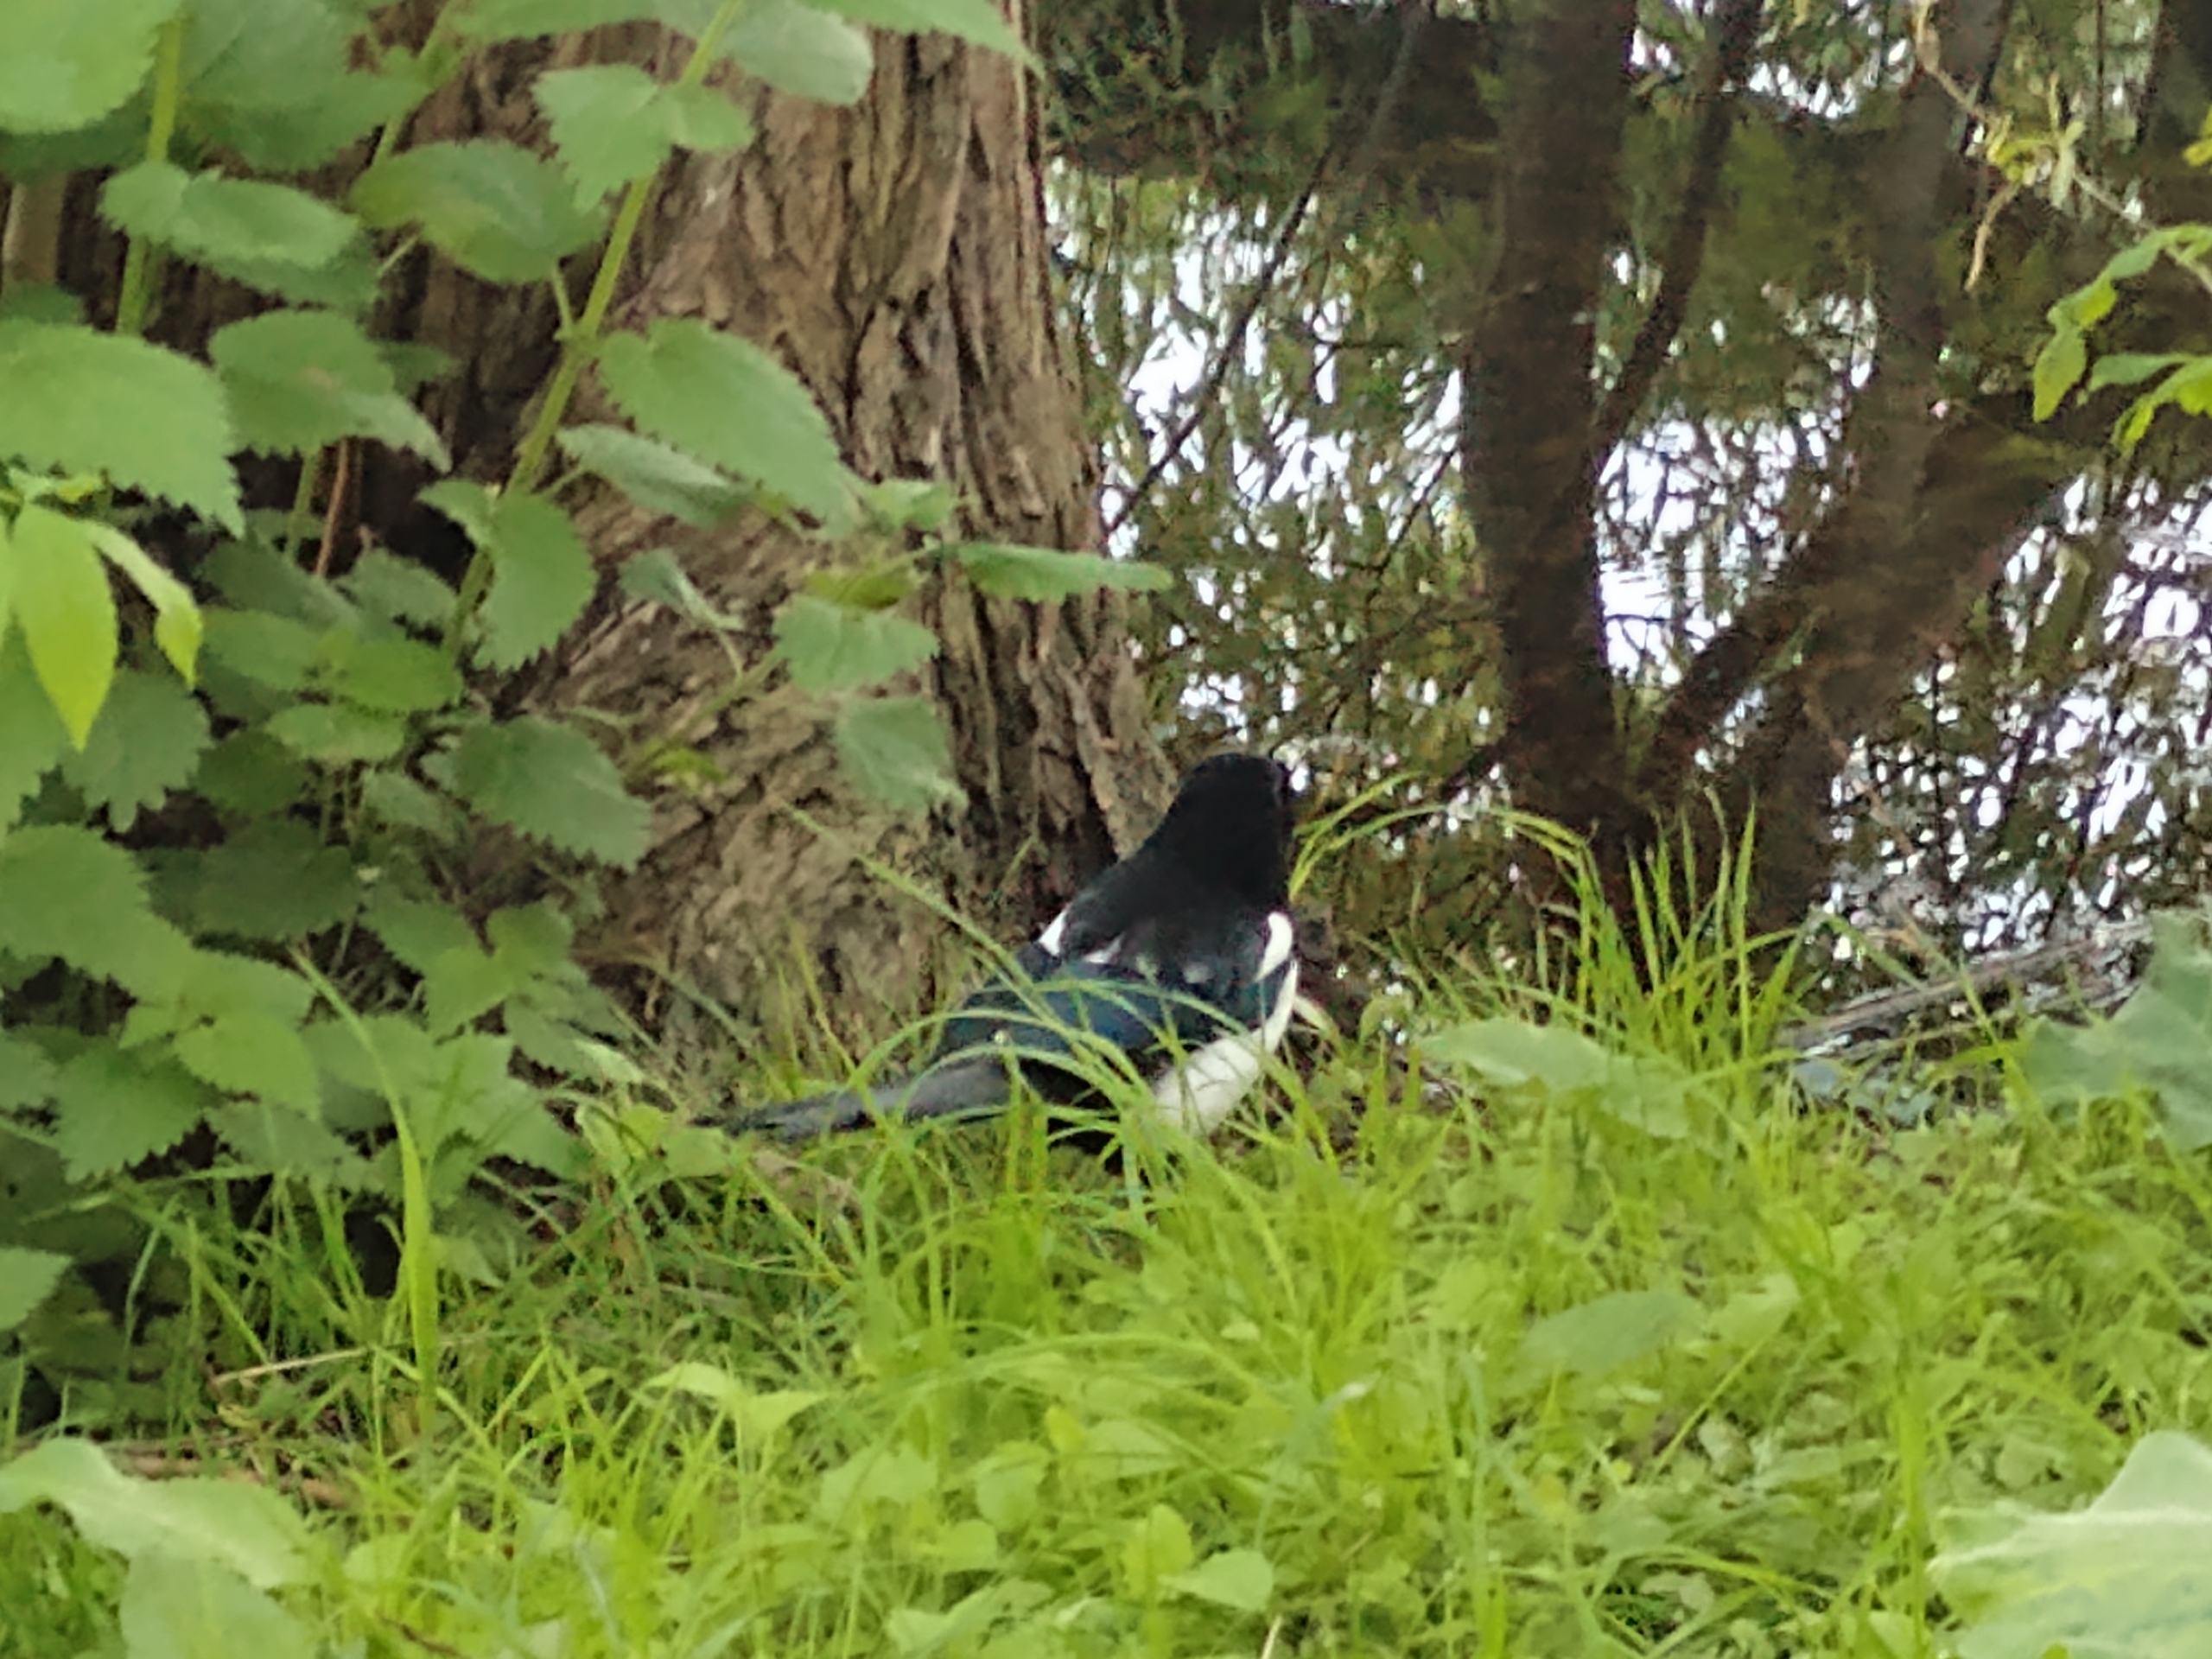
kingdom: Animalia
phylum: Chordata
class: Aves
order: Passeriformes
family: Corvidae
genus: Pica
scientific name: Pica pica
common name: Husskade
